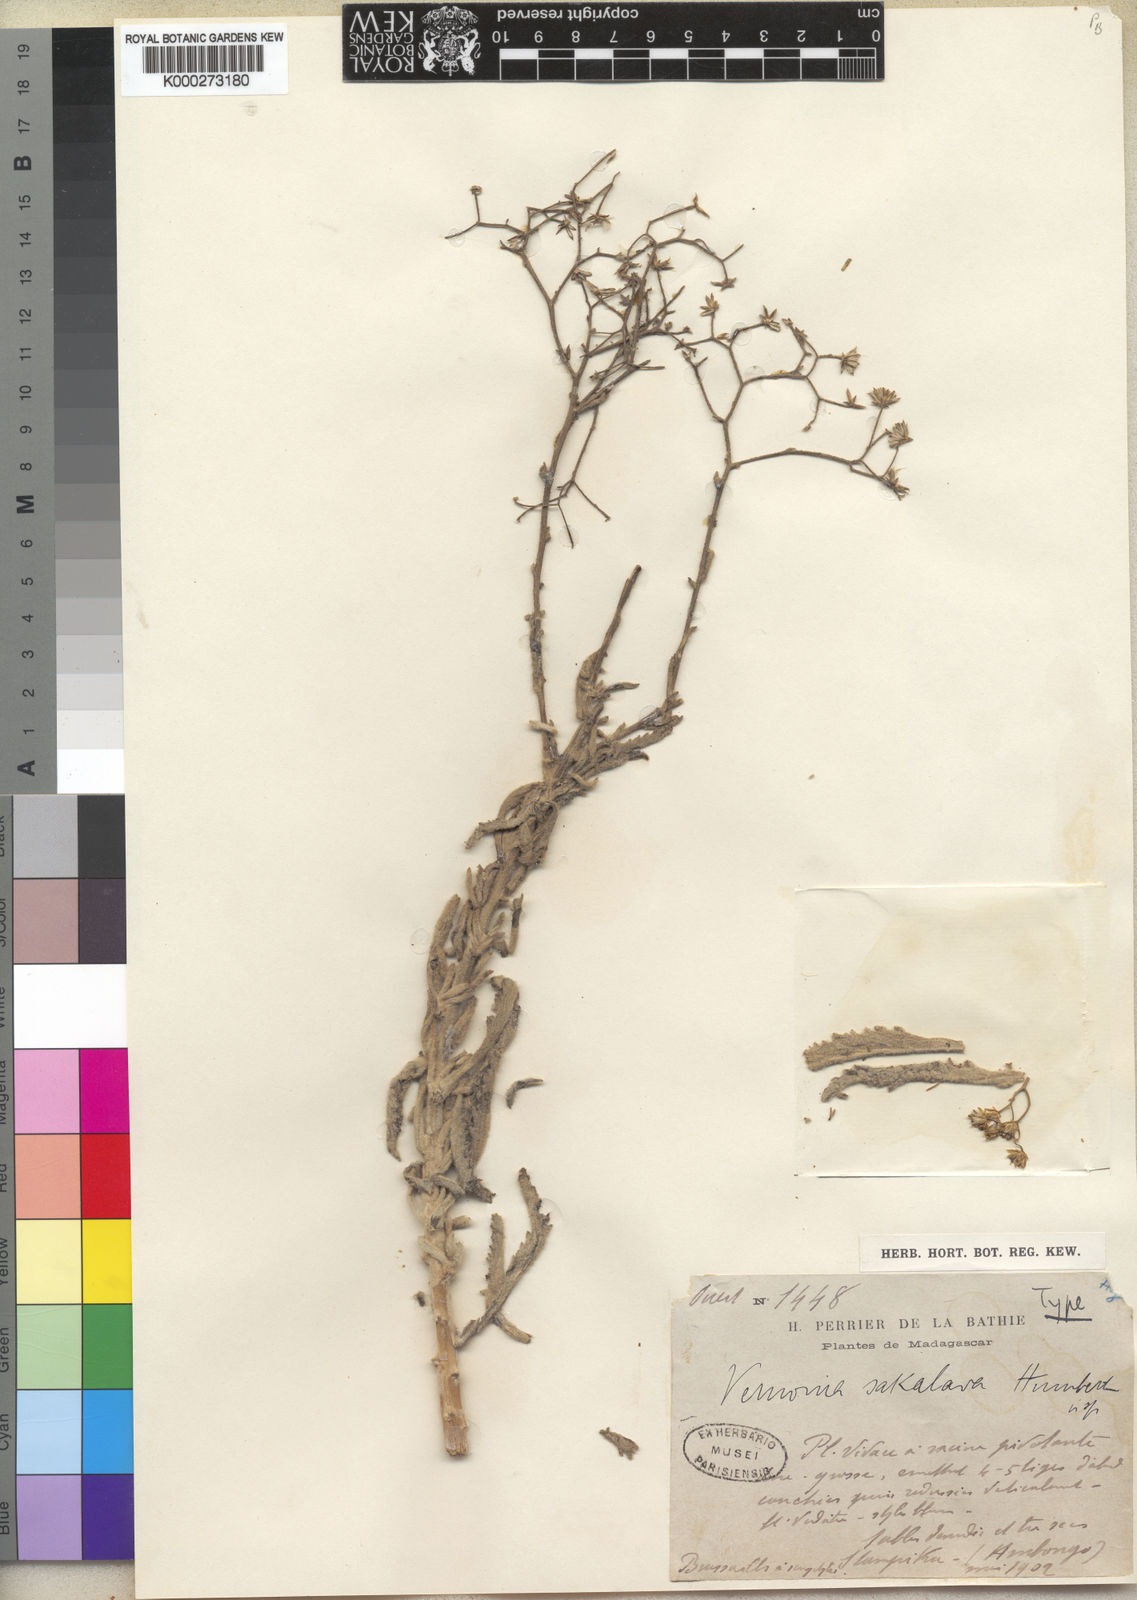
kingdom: Plantae
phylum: Tracheophyta
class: Magnoliopsida
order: Asterales
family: Asteraceae
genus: Vernonia
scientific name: Vernonia sakalava
